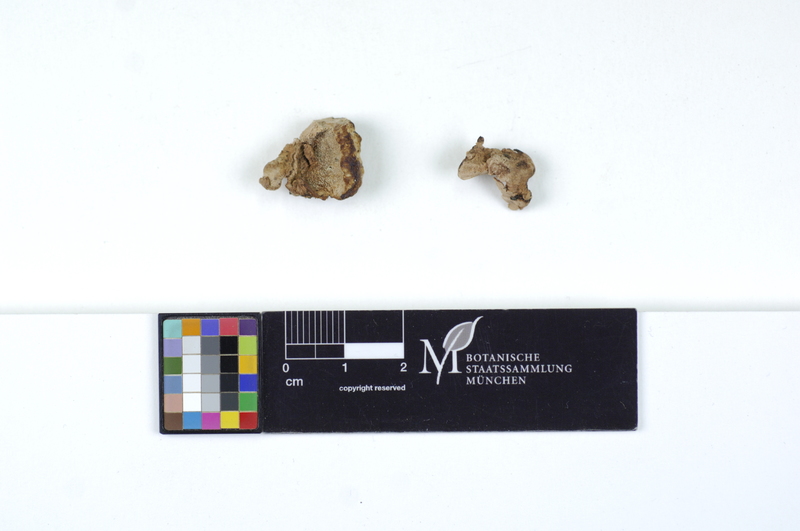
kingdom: Fungi
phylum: Basidiomycota
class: Agaricomycetes
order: Polyporales
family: Fomitopsidaceae
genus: Rhodofomes
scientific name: Rhodofomes roseus
